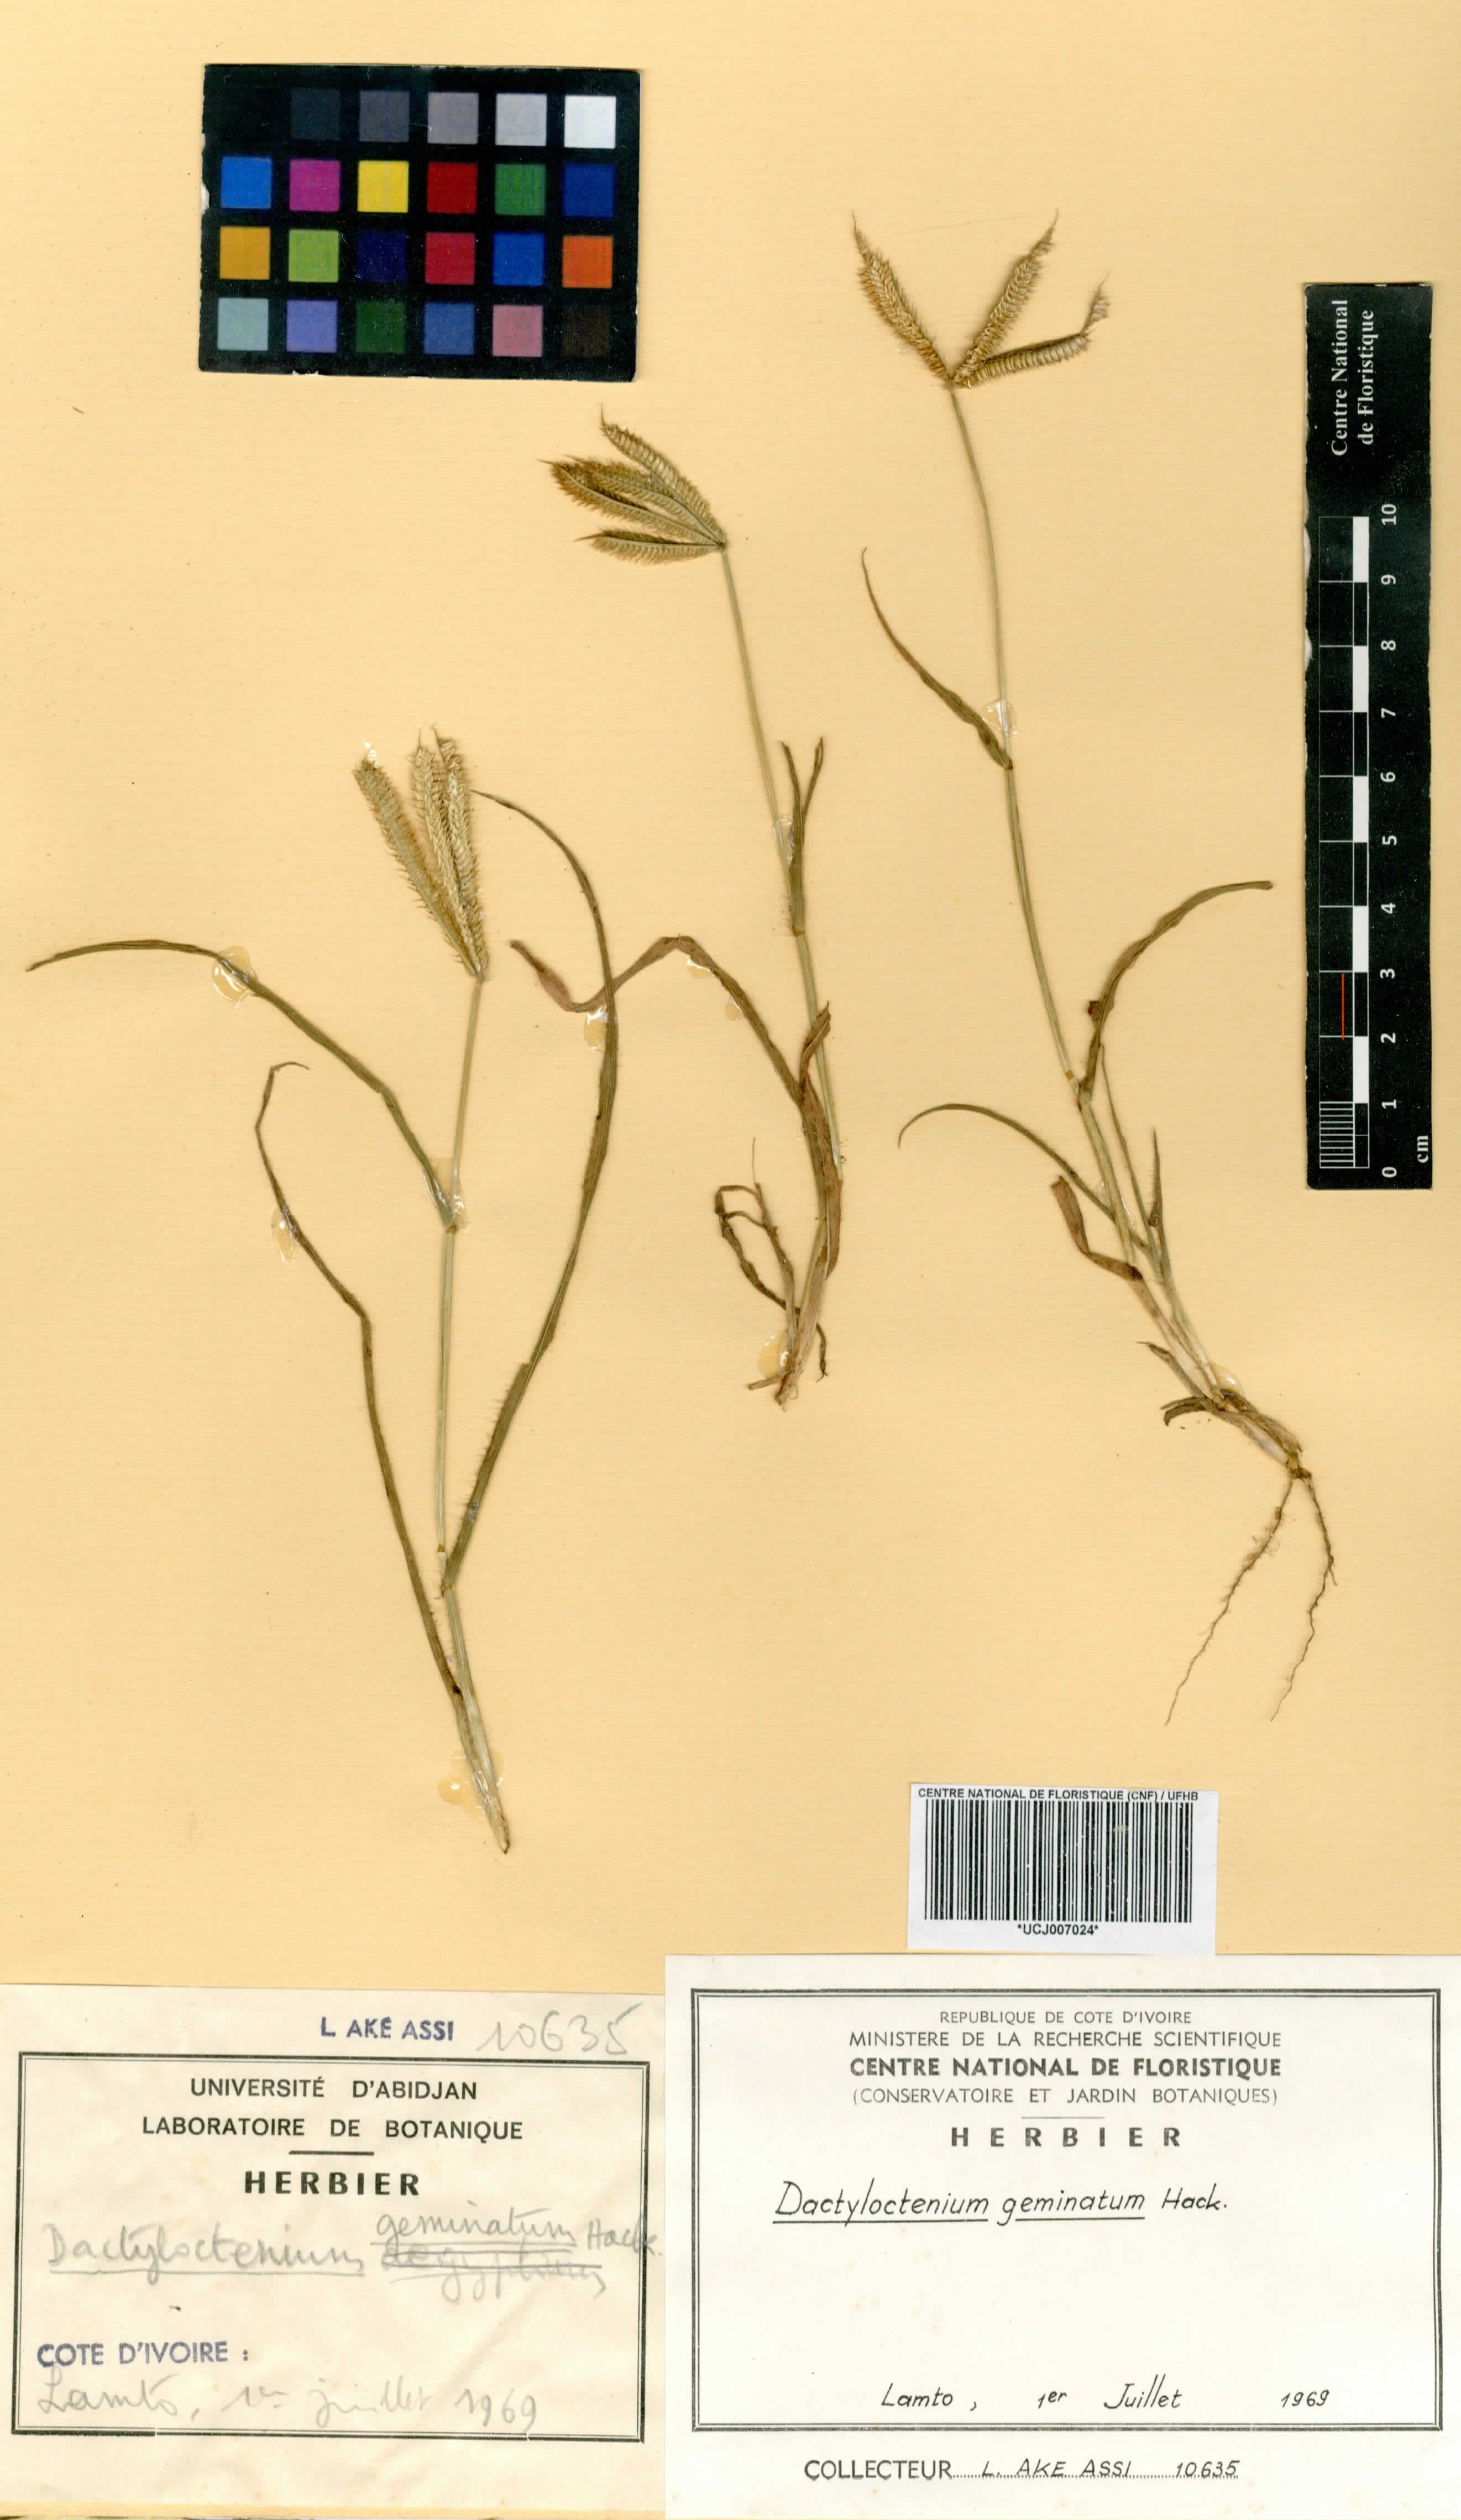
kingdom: Plantae
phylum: Tracheophyta
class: Liliopsida
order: Poales
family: Poaceae
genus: Dactyloctenium
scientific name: Dactyloctenium geminatum
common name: Crowsfoot grass
